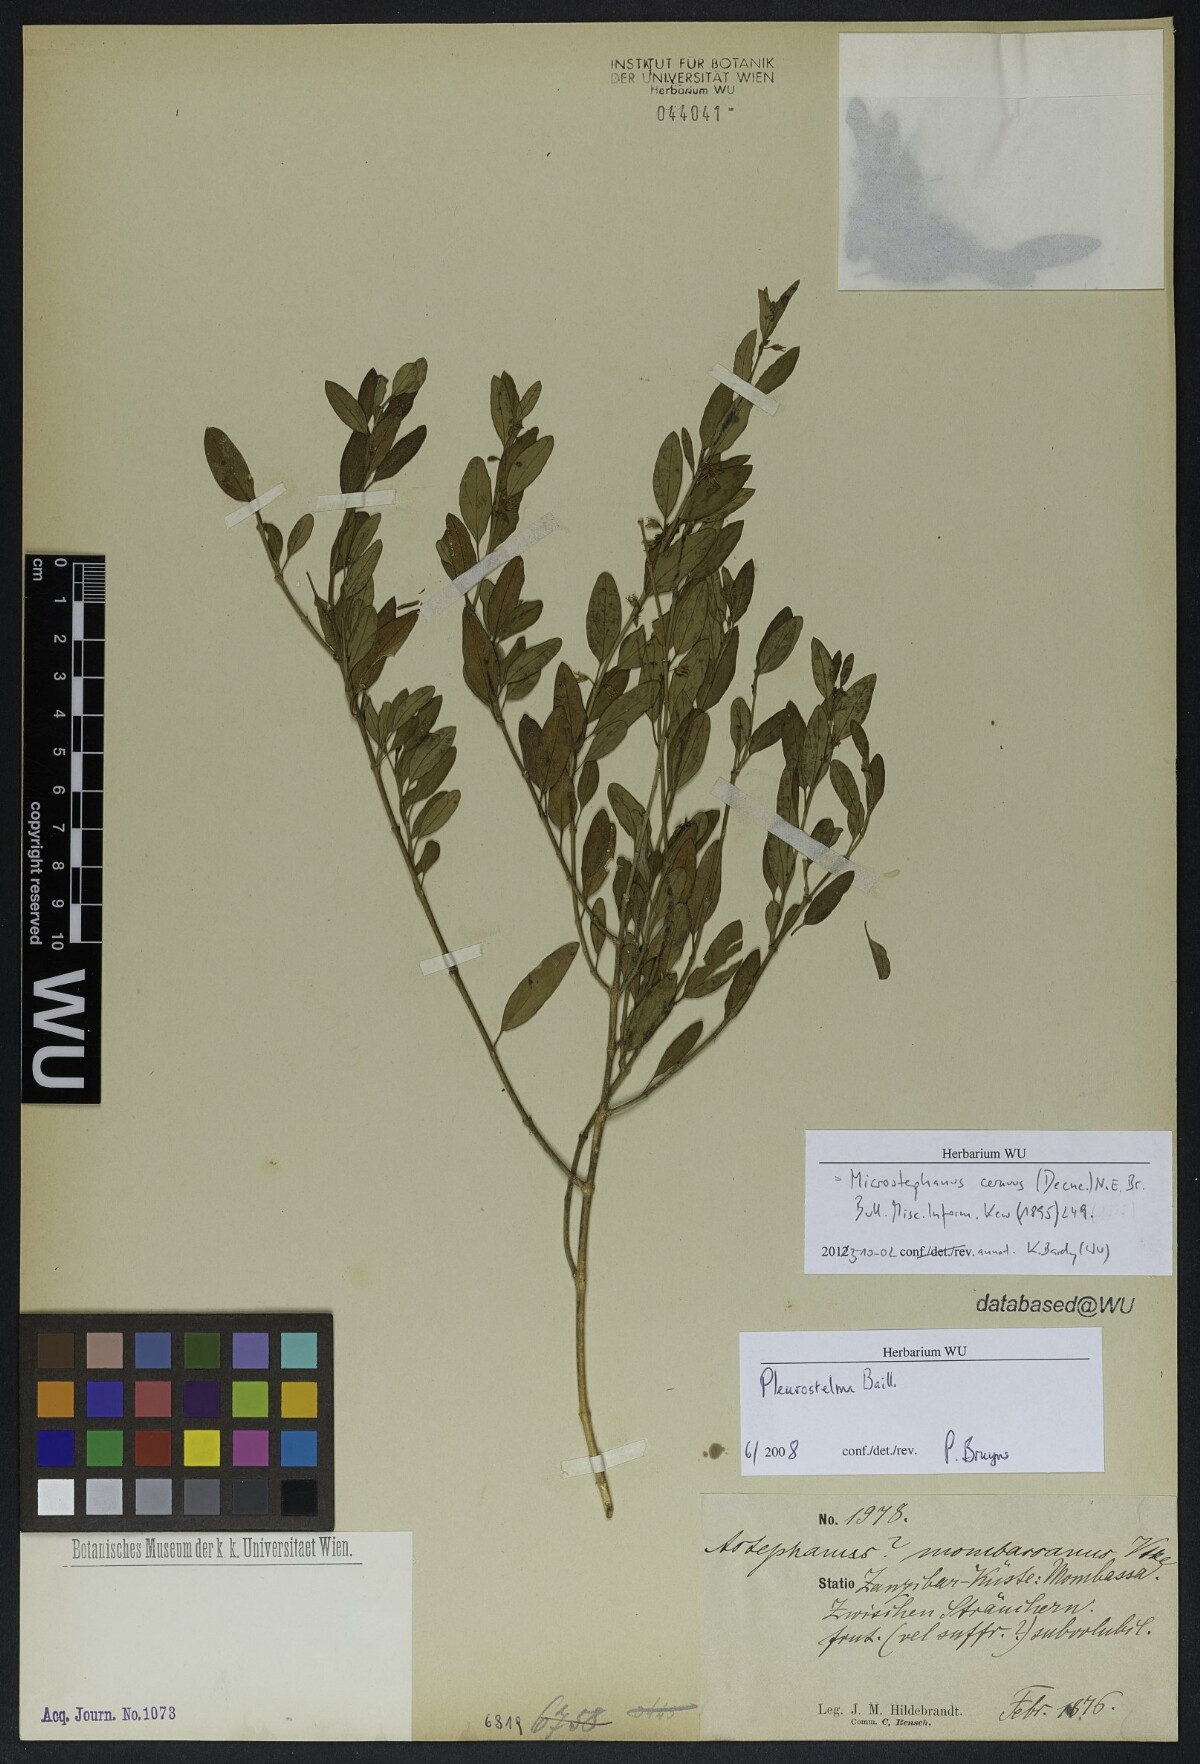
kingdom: Plantae
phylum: Tracheophyta
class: Magnoliopsida
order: Gentianales
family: Apocynaceae
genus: Vincetoxicum
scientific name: Vincetoxicum cernuum
